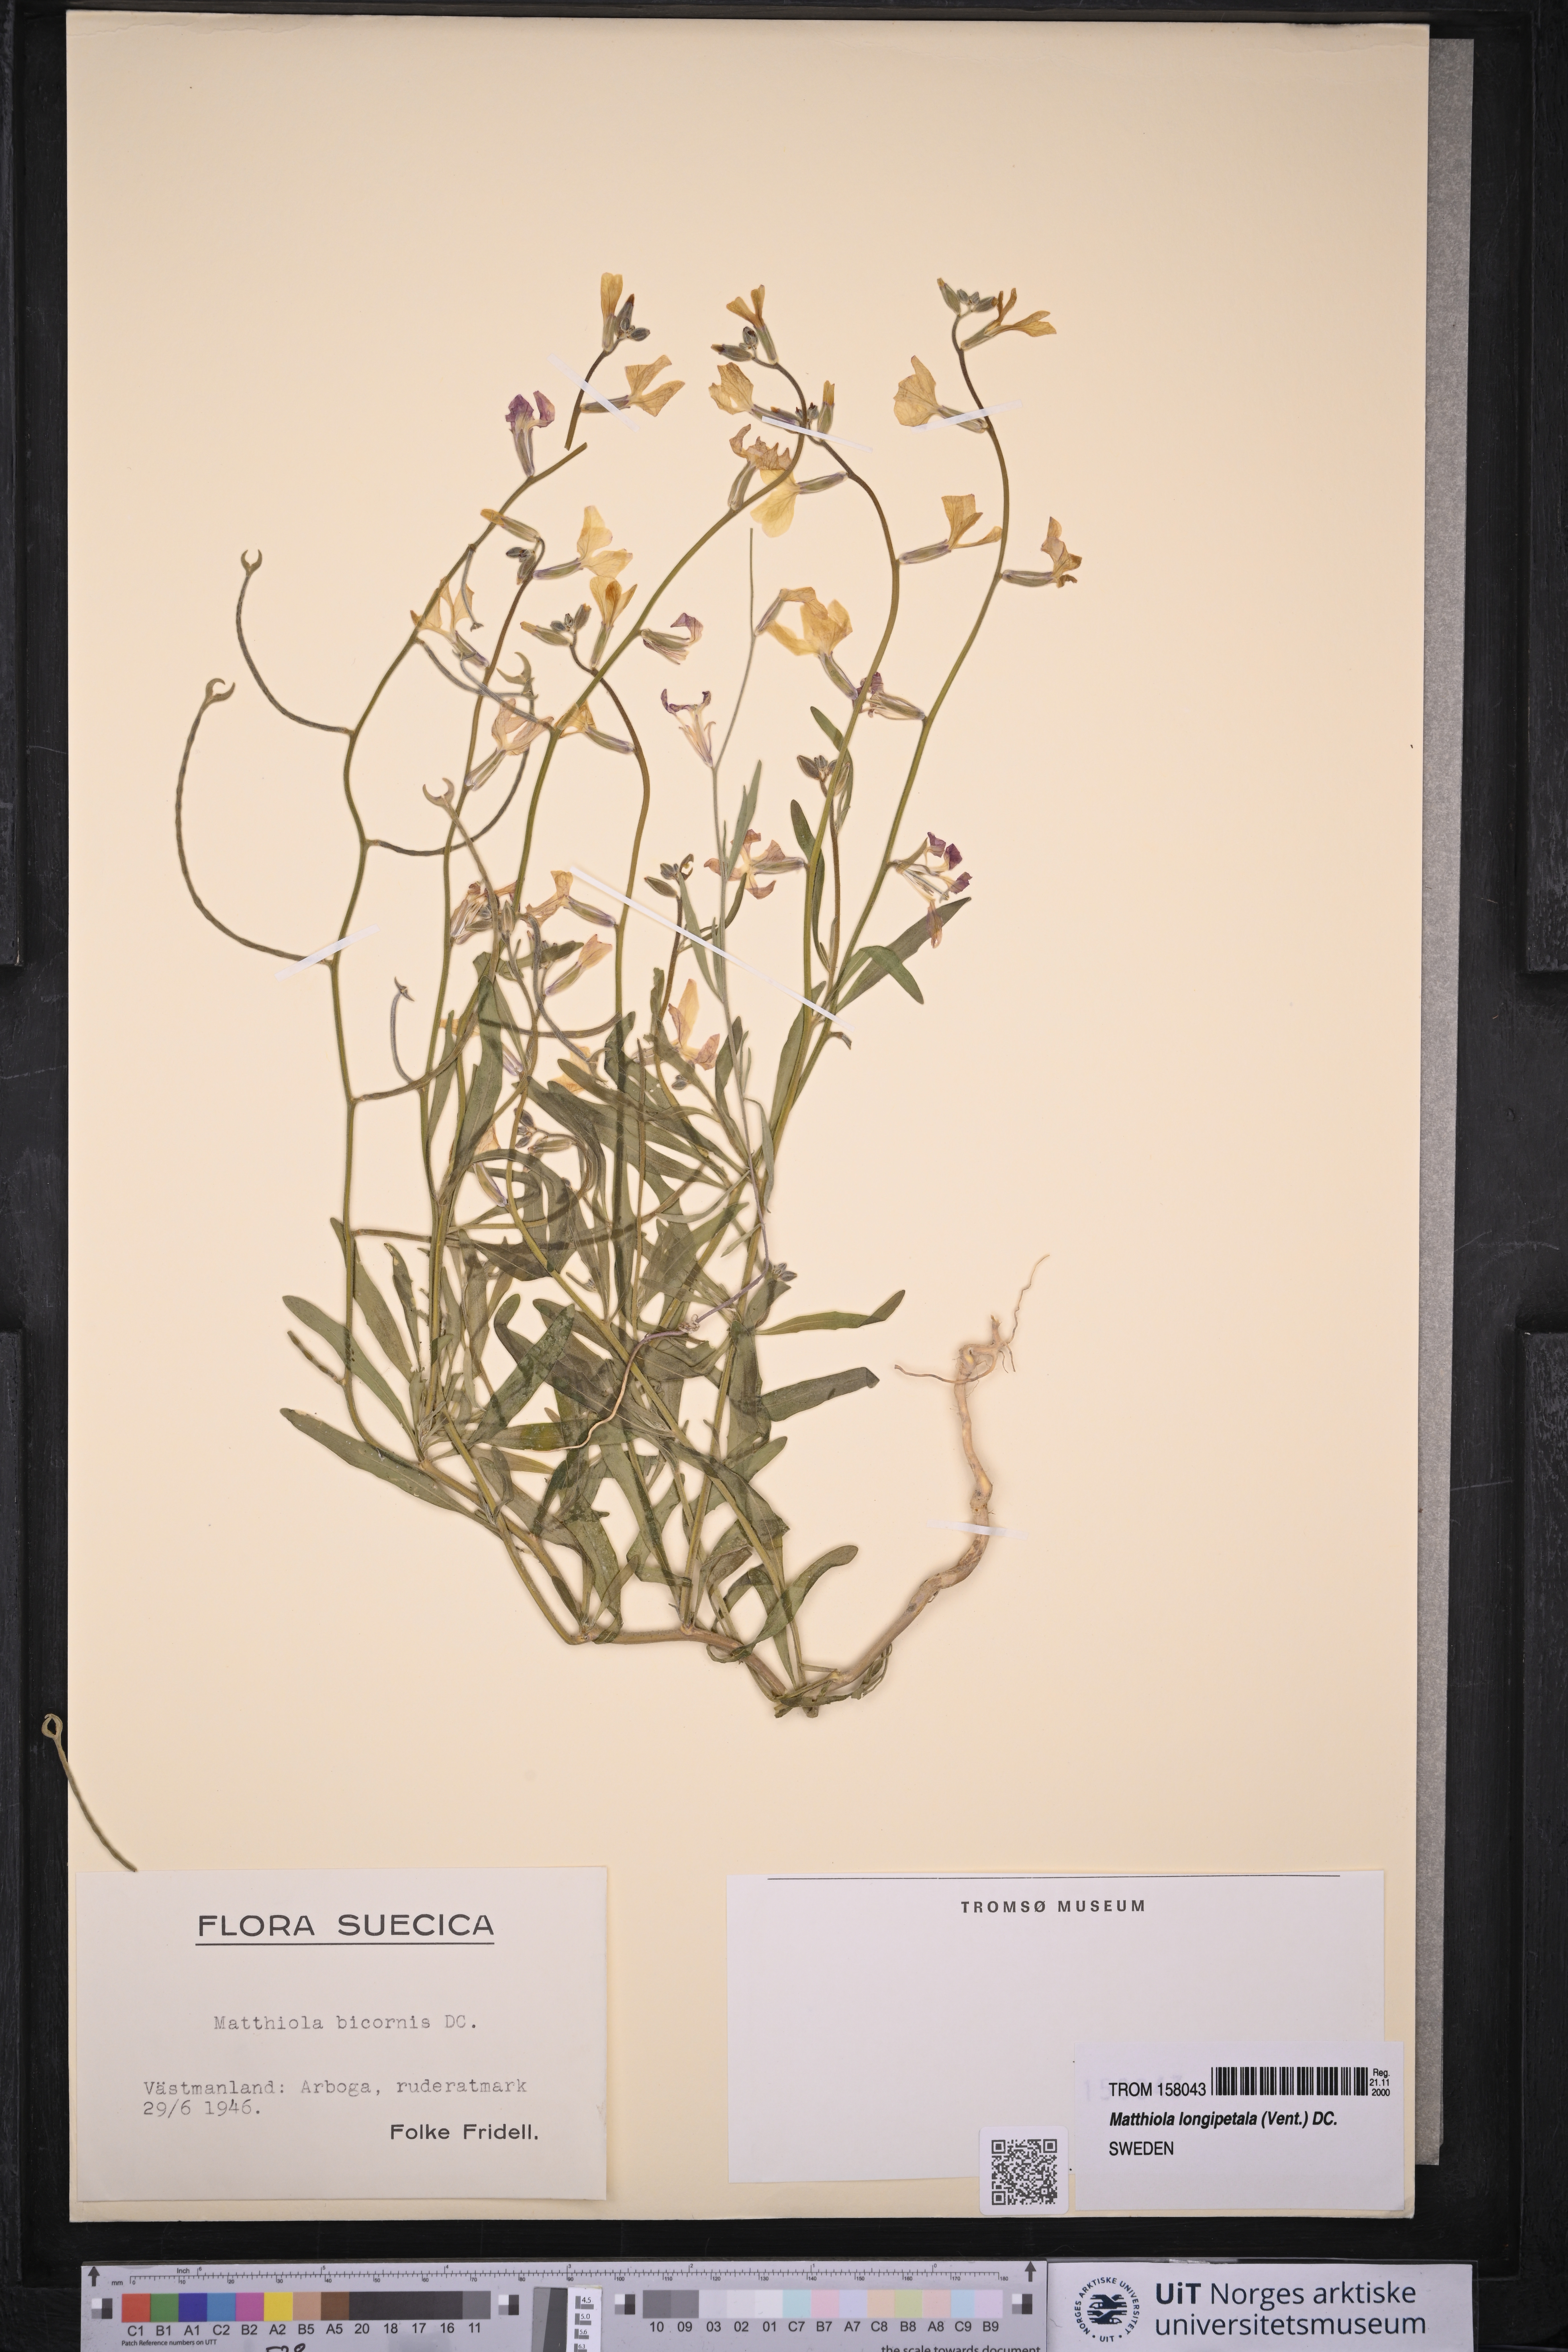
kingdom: Plantae
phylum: Tracheophyta
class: Magnoliopsida
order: Brassicales
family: Brassicaceae
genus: Matthiola
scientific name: Matthiola longipetala
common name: Night-scented stock
